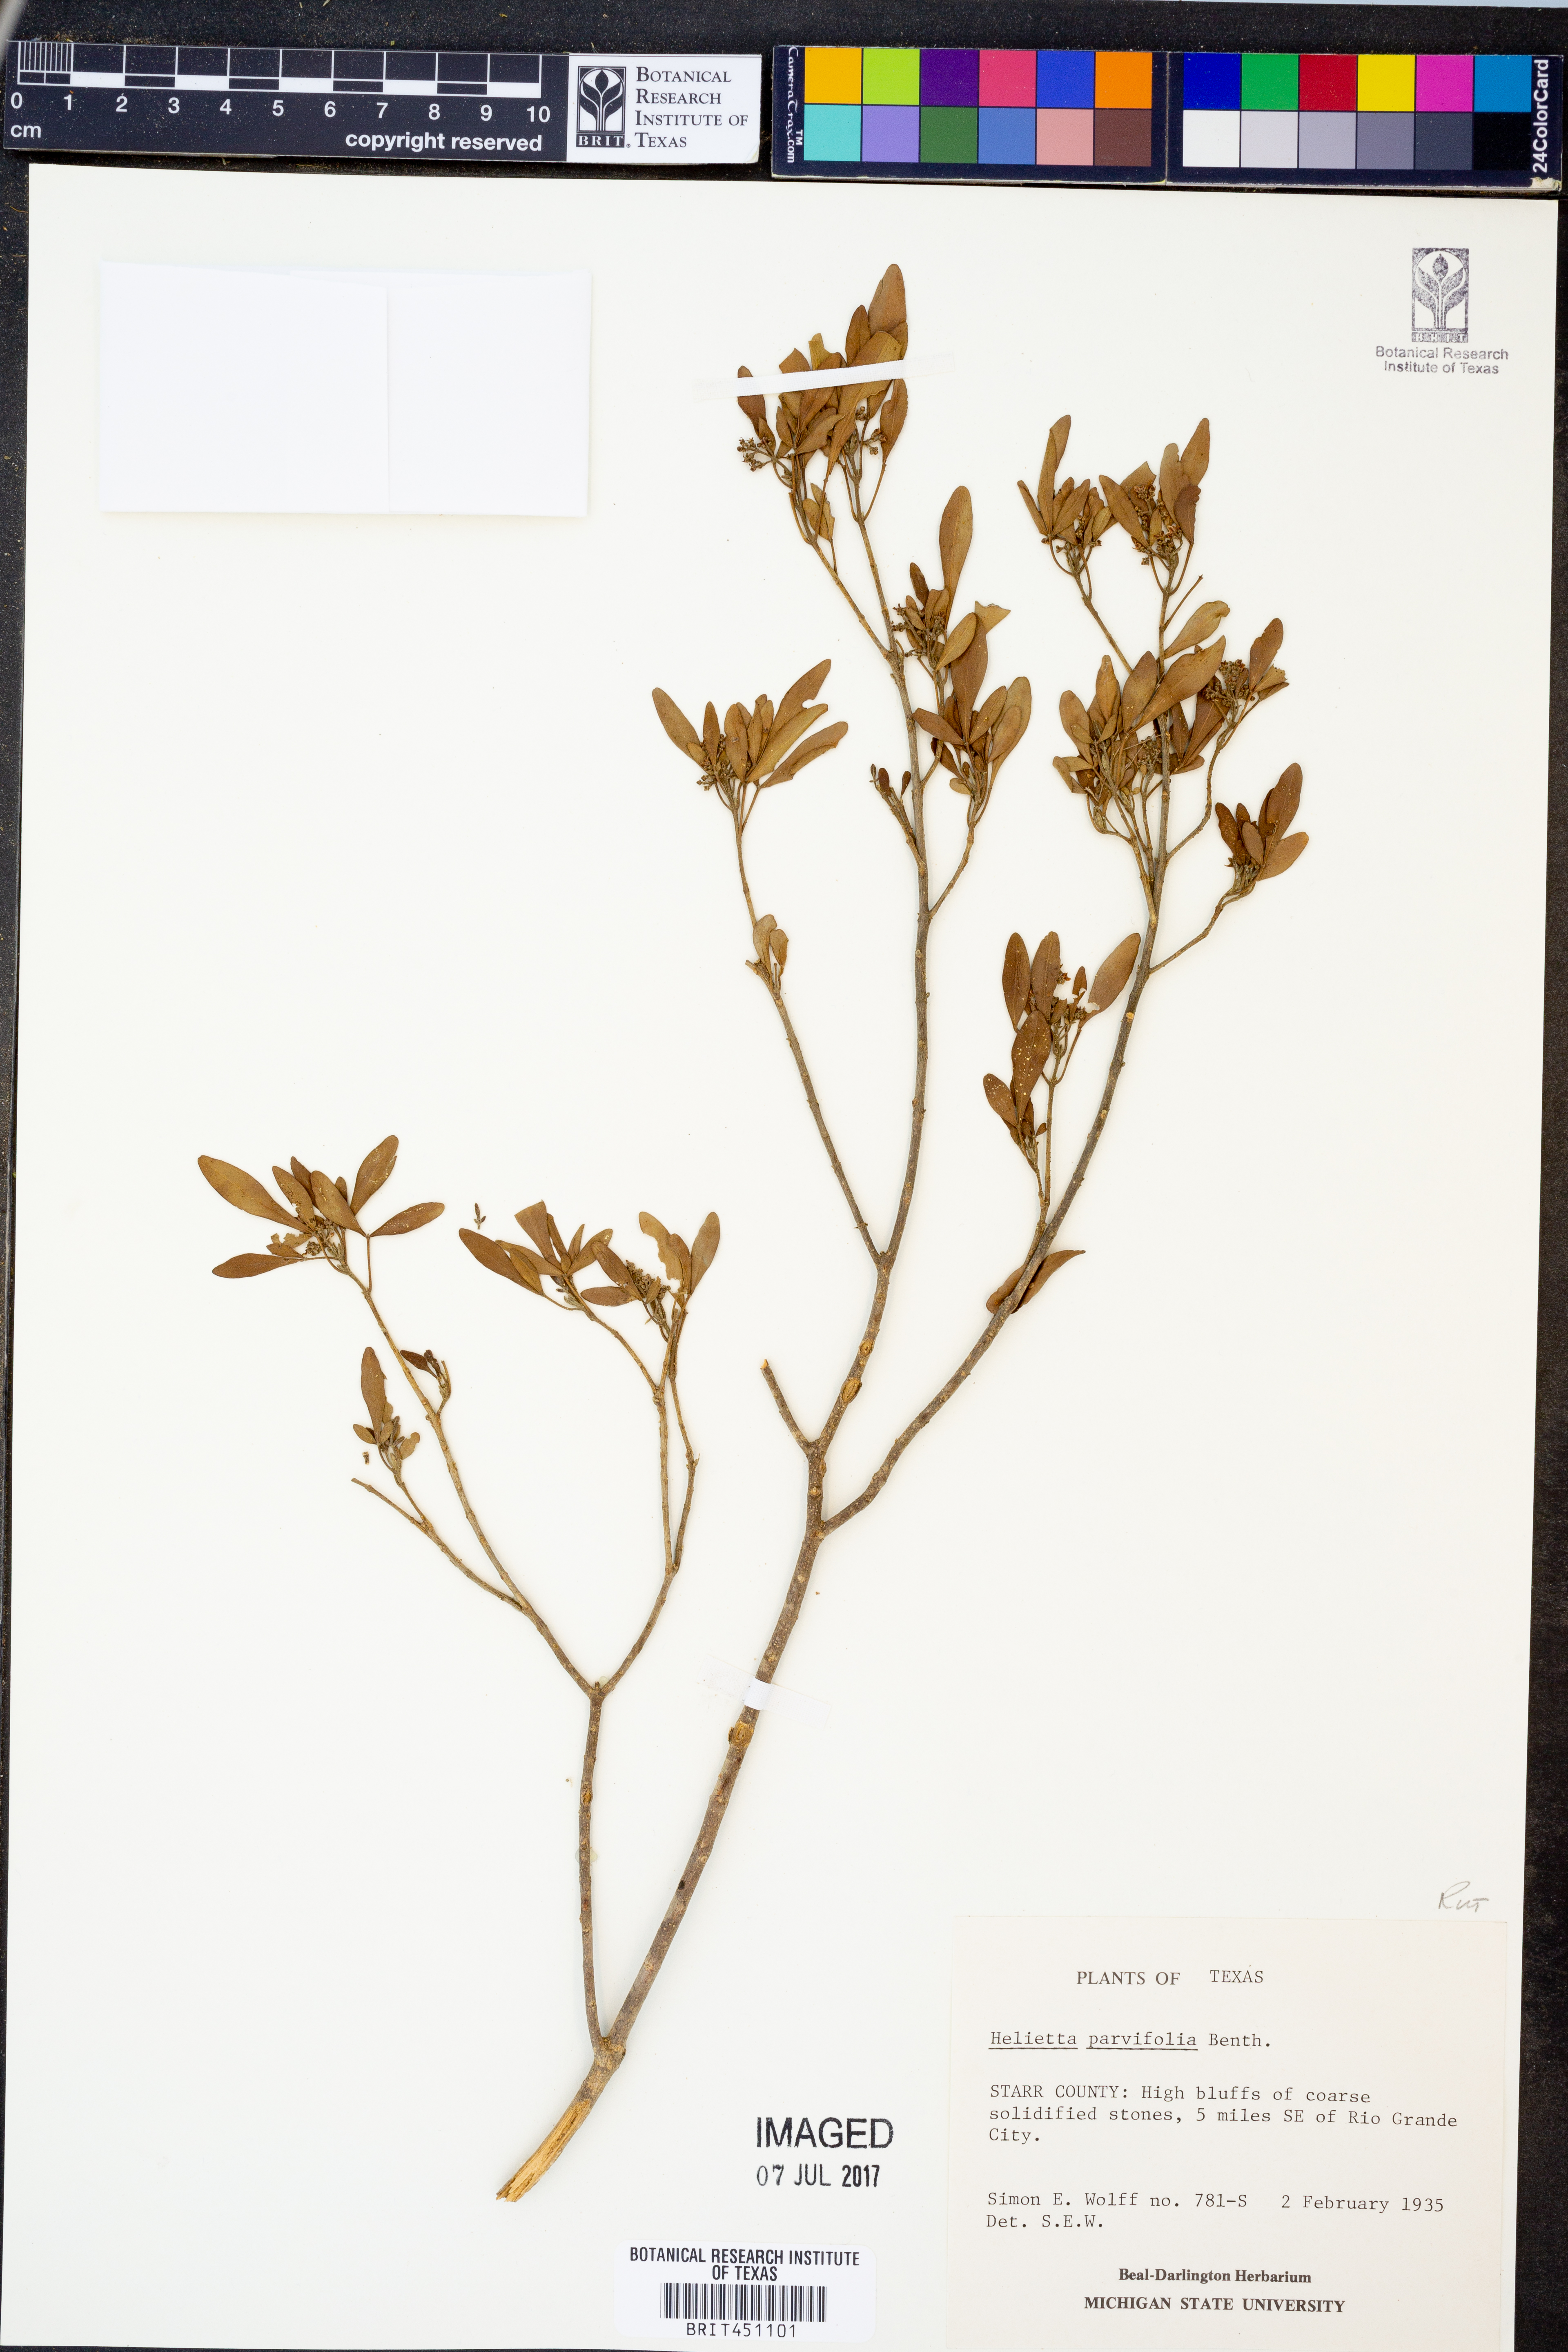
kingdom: Plantae
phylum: Tracheophyta
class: Magnoliopsida
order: Sapindales
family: Rutaceae
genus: Helietta
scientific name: Helietta parvifolia
